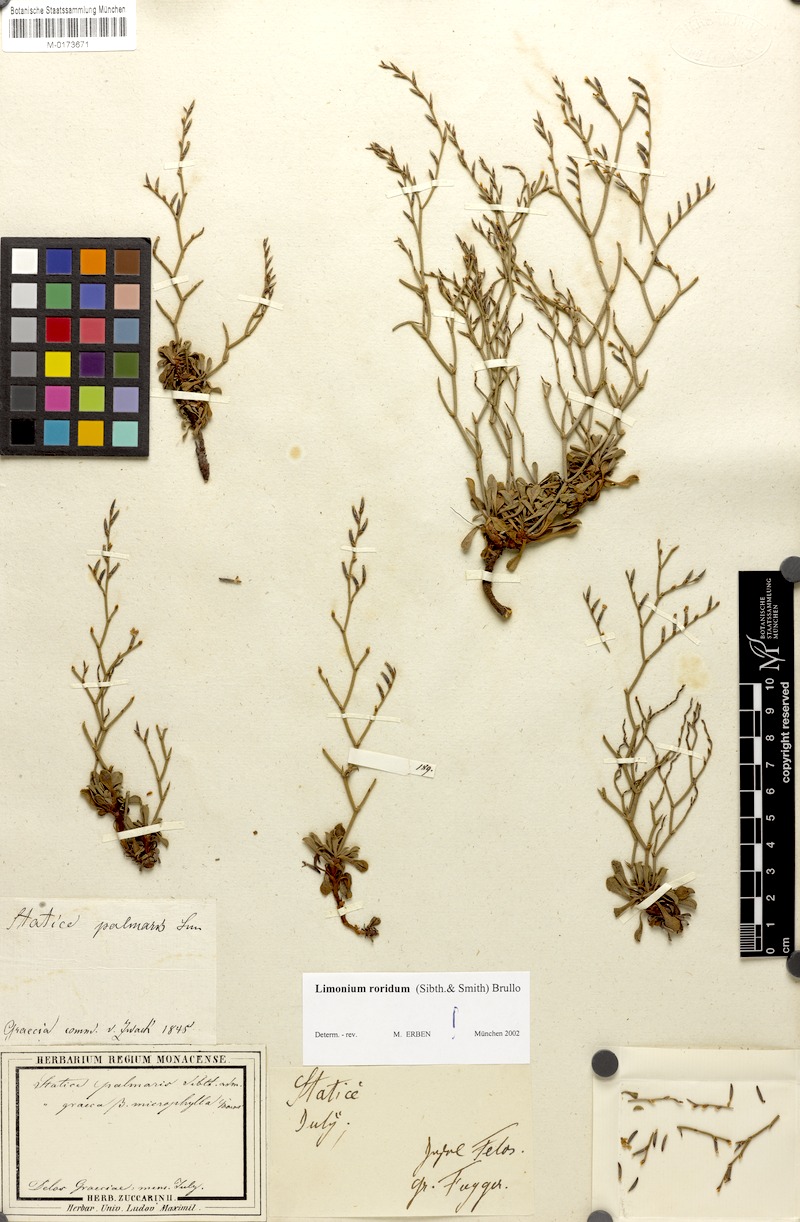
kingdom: Plantae
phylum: Tracheophyta
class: Magnoliopsida
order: Caryophyllales
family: Plumbaginaceae
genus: Limonium
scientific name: Limonium roridum
